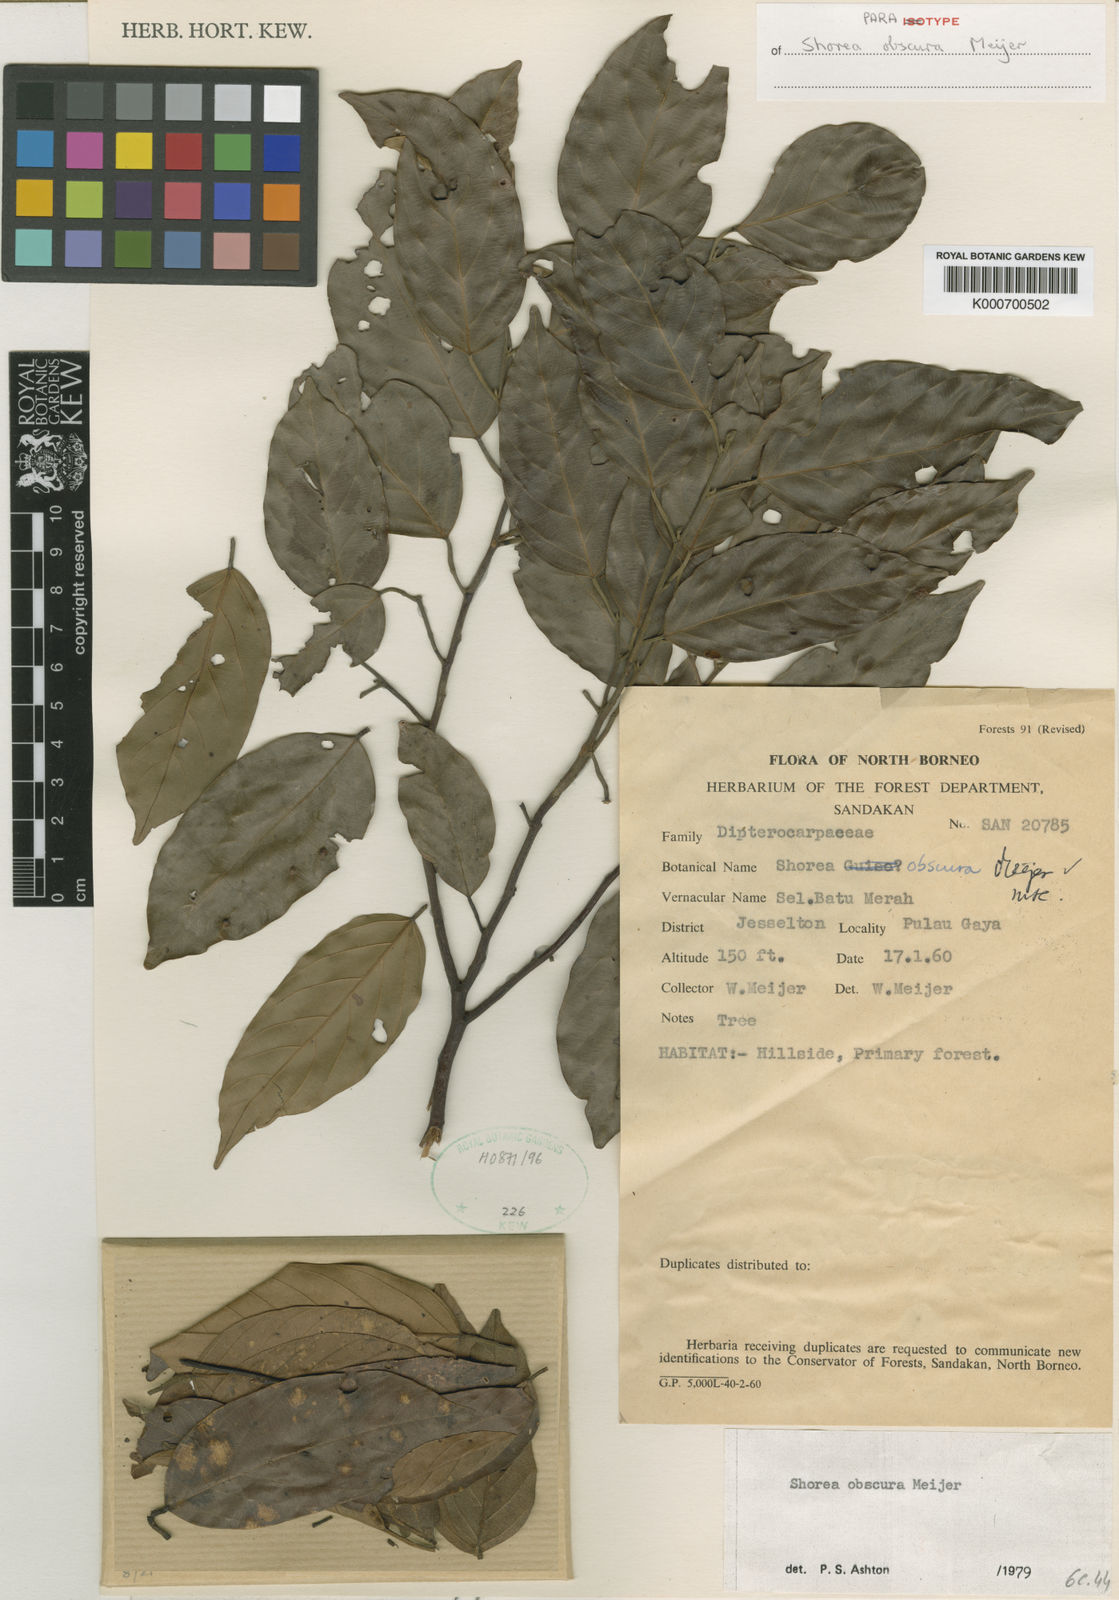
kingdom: Plantae
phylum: Tracheophyta
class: Magnoliopsida
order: Malvales
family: Dipterocarpaceae
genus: Shorea
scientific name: Shorea obscura
